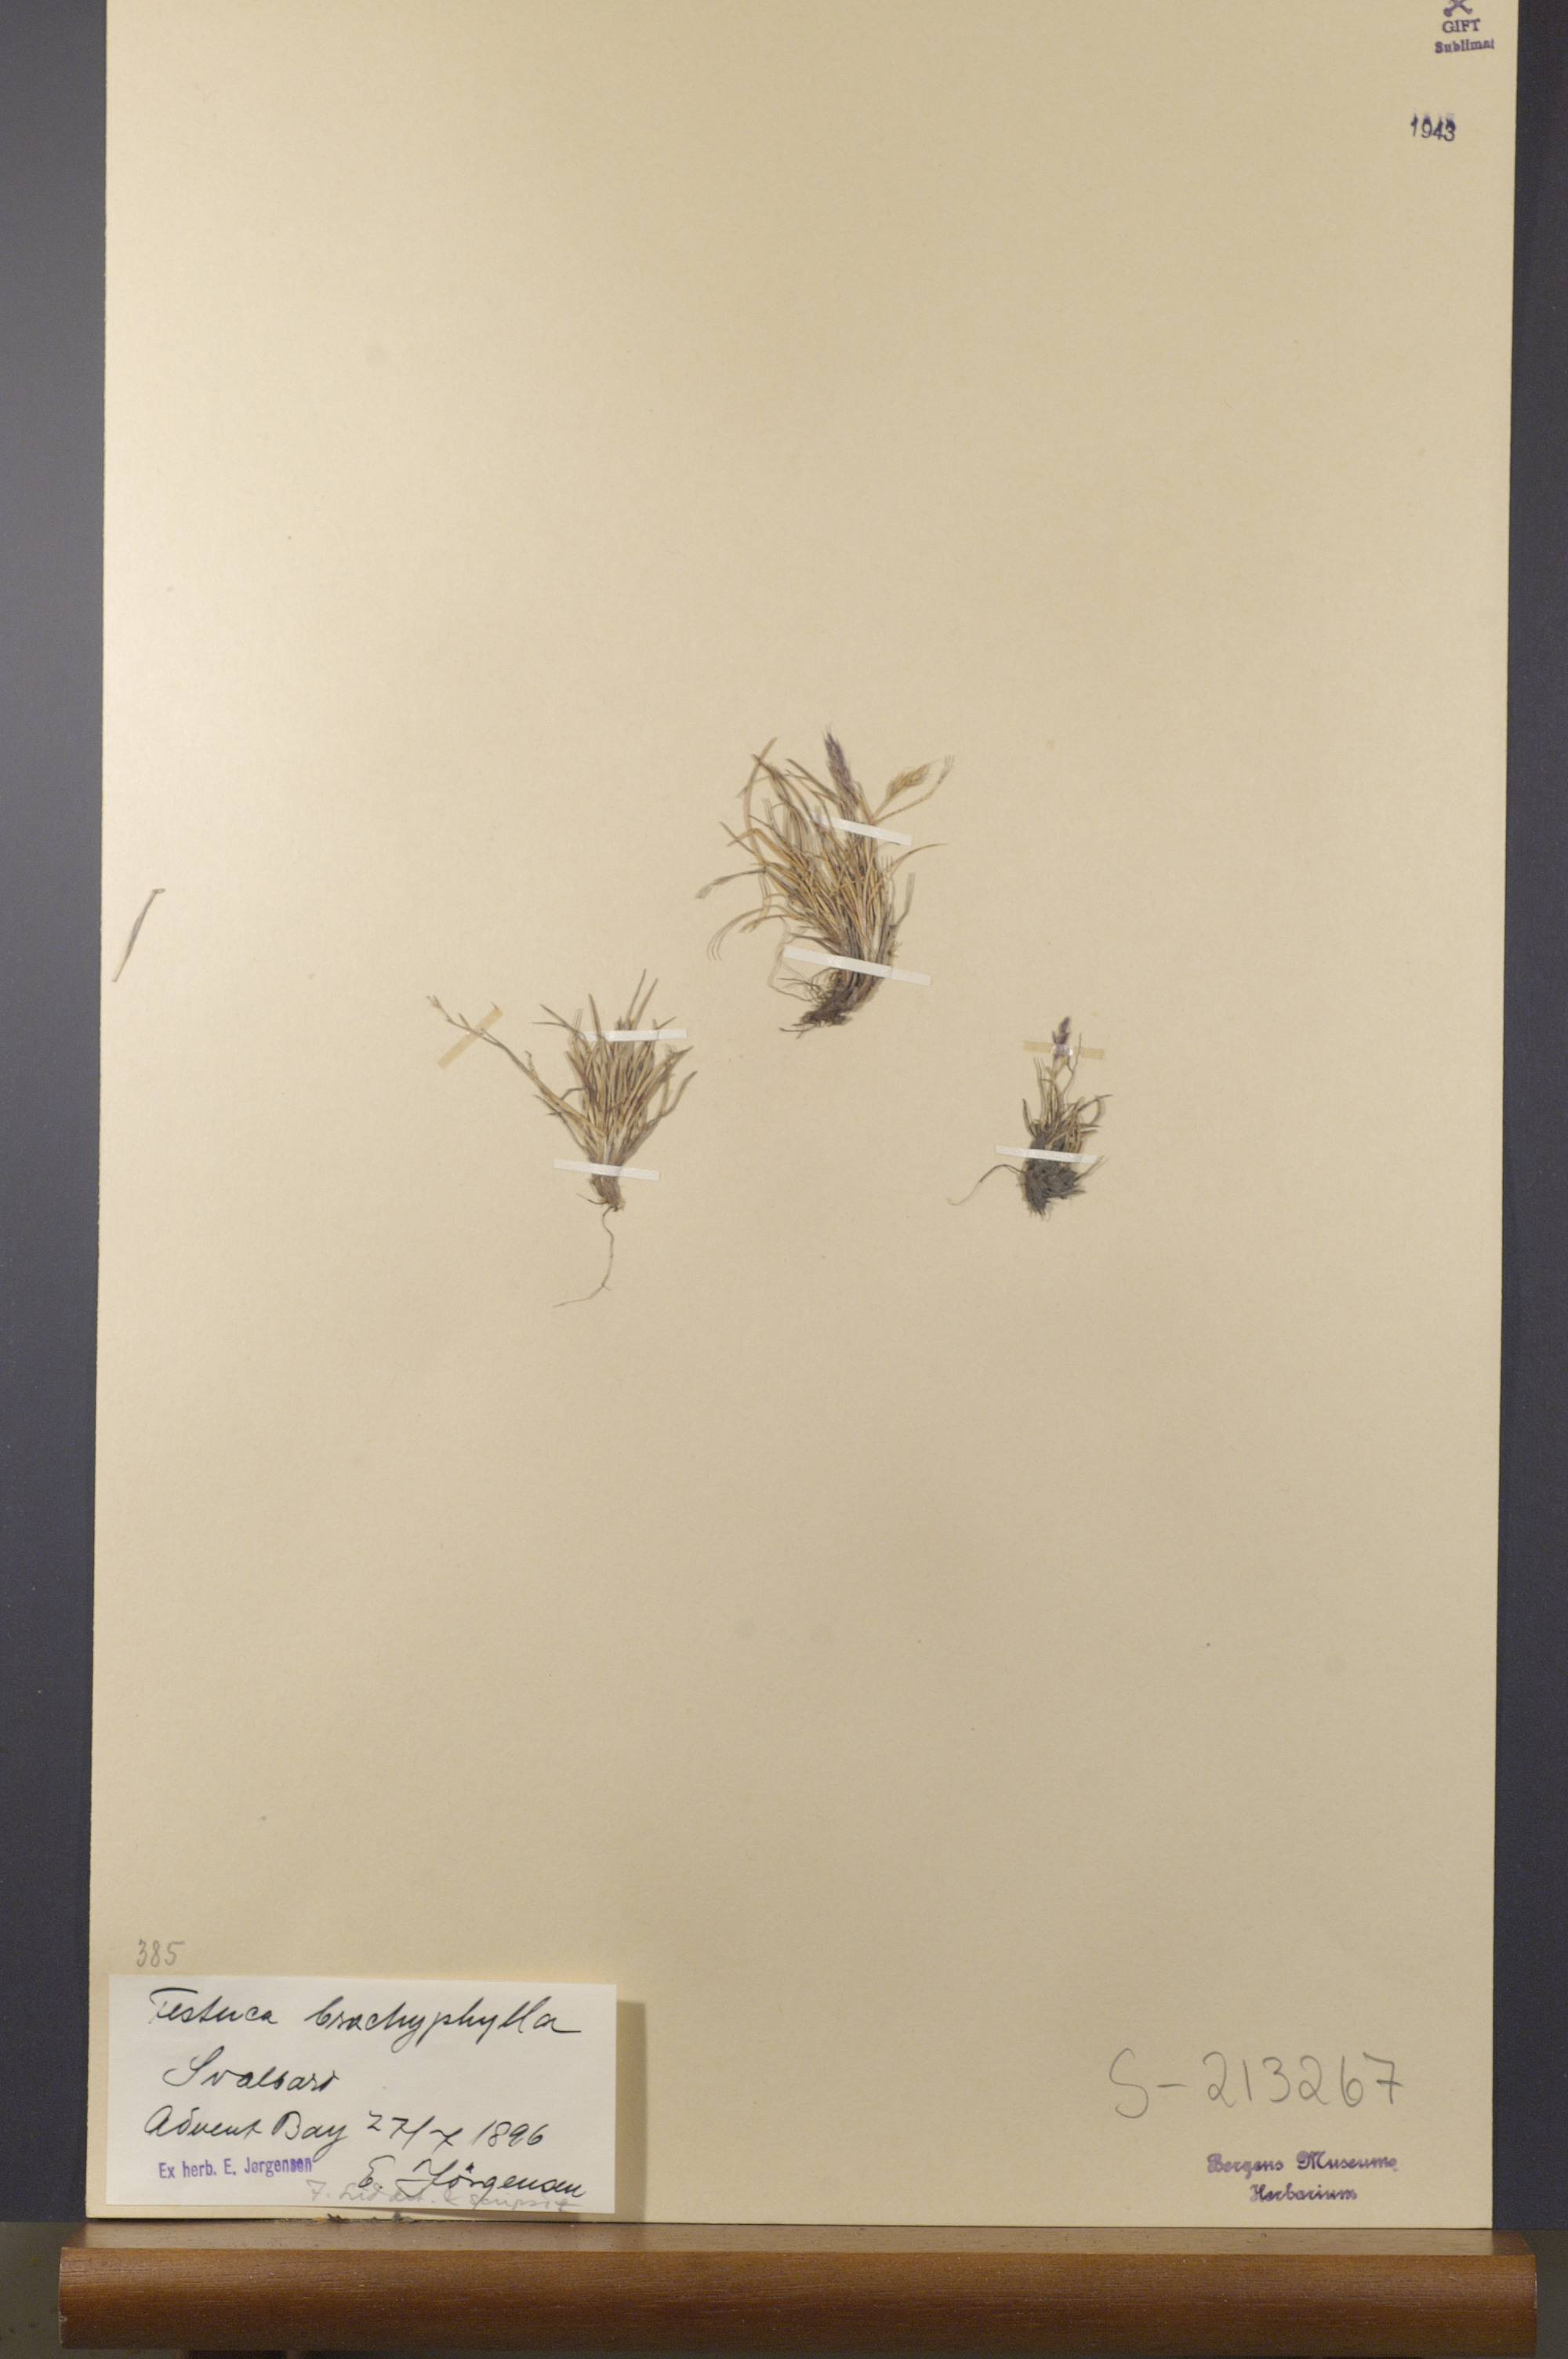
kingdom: Plantae
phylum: Tracheophyta
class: Liliopsida
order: Poales
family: Poaceae
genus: Festuca
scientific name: Festuca brachyphylla
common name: Alpine fescue
